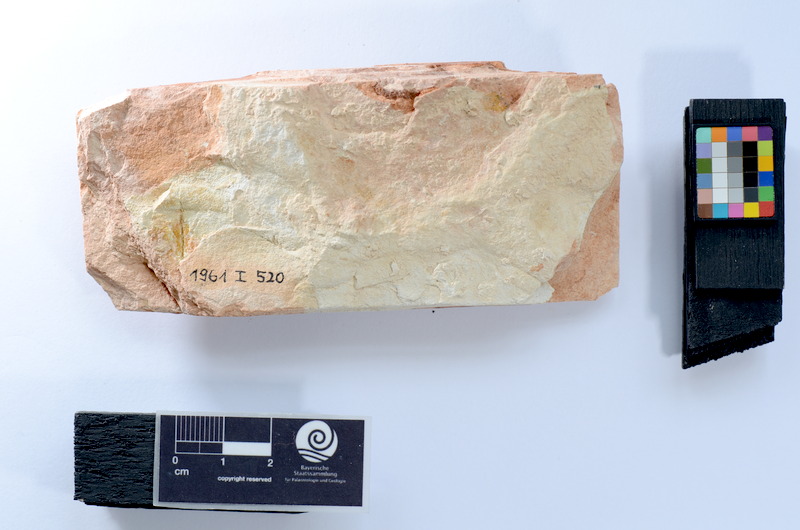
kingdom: Animalia
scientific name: Animalia
